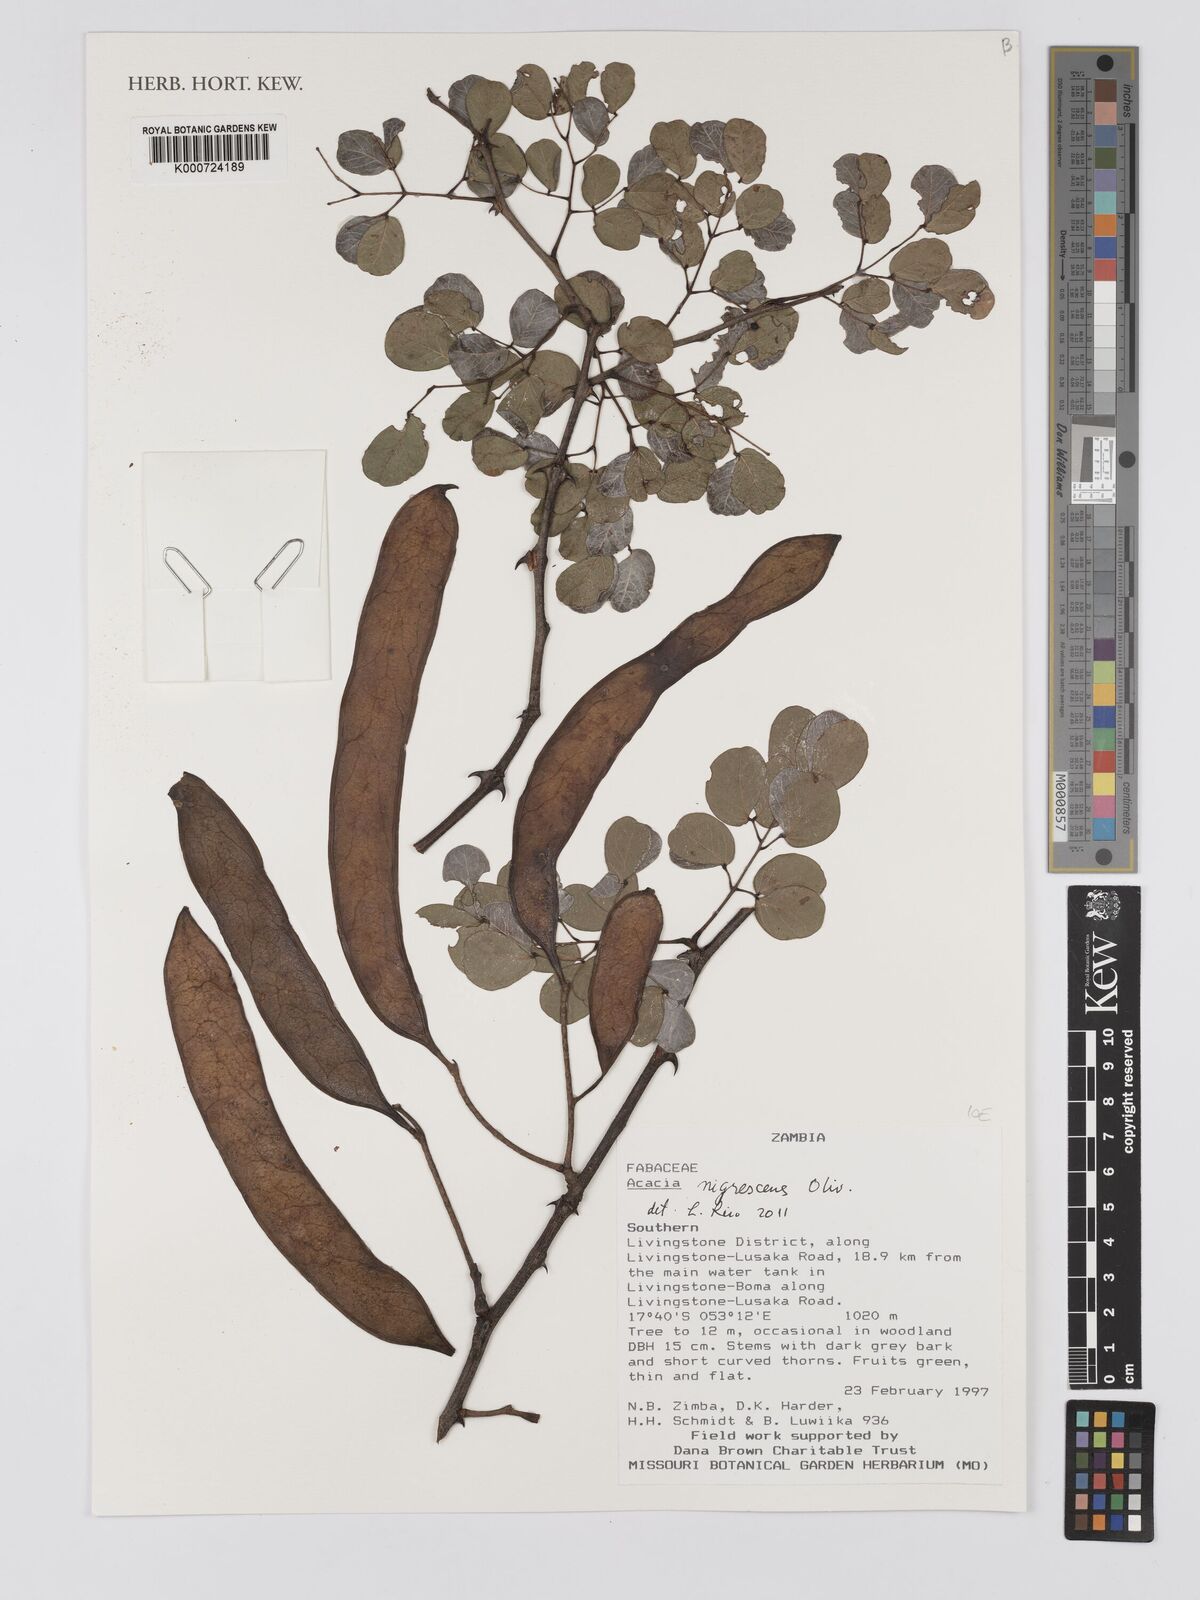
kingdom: Plantae
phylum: Tracheophyta
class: Magnoliopsida
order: Fabales
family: Fabaceae
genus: Senegalia
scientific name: Senegalia nigrescens
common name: Knobthorn
